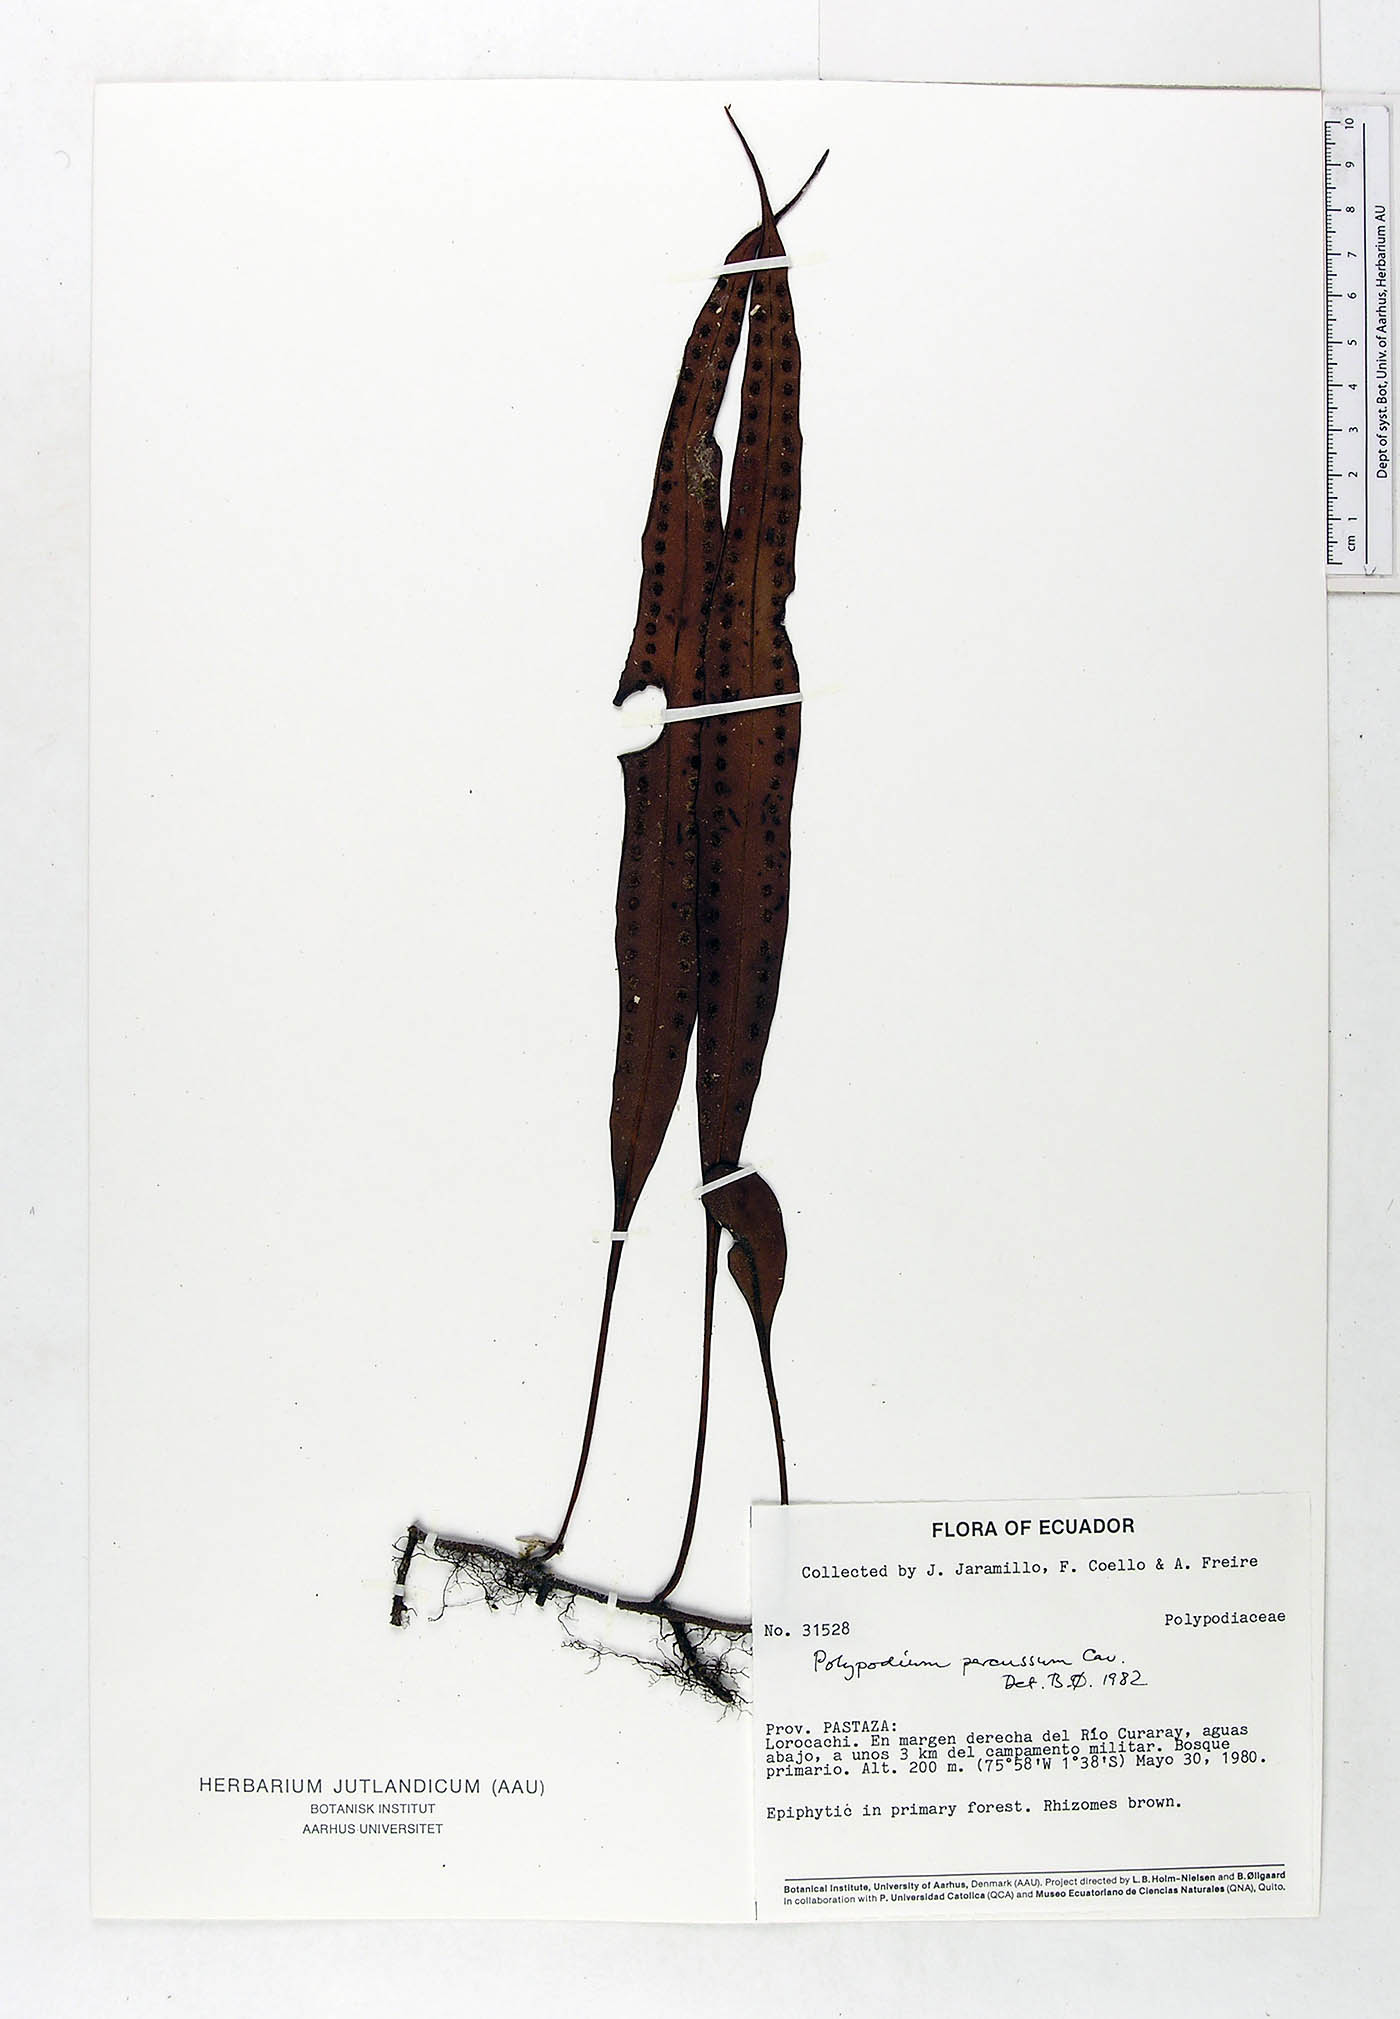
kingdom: Plantae
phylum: Tracheophyta
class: Polypodiopsida
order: Polypodiales
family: Polypodiaceae
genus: Microgramma
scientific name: Microgramma percussa
